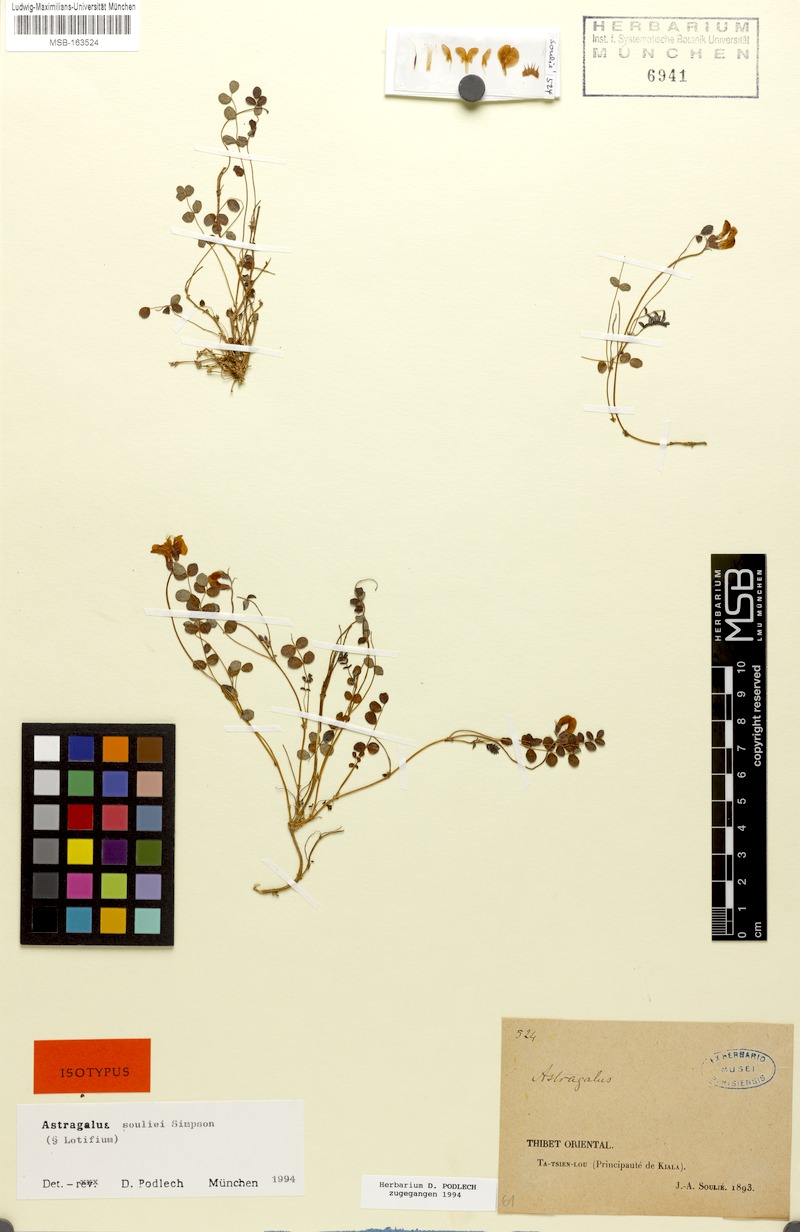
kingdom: Plantae
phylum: Tracheophyta
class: Magnoliopsida
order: Fabales
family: Fabaceae
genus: Astragalus
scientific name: Astragalus souliei
